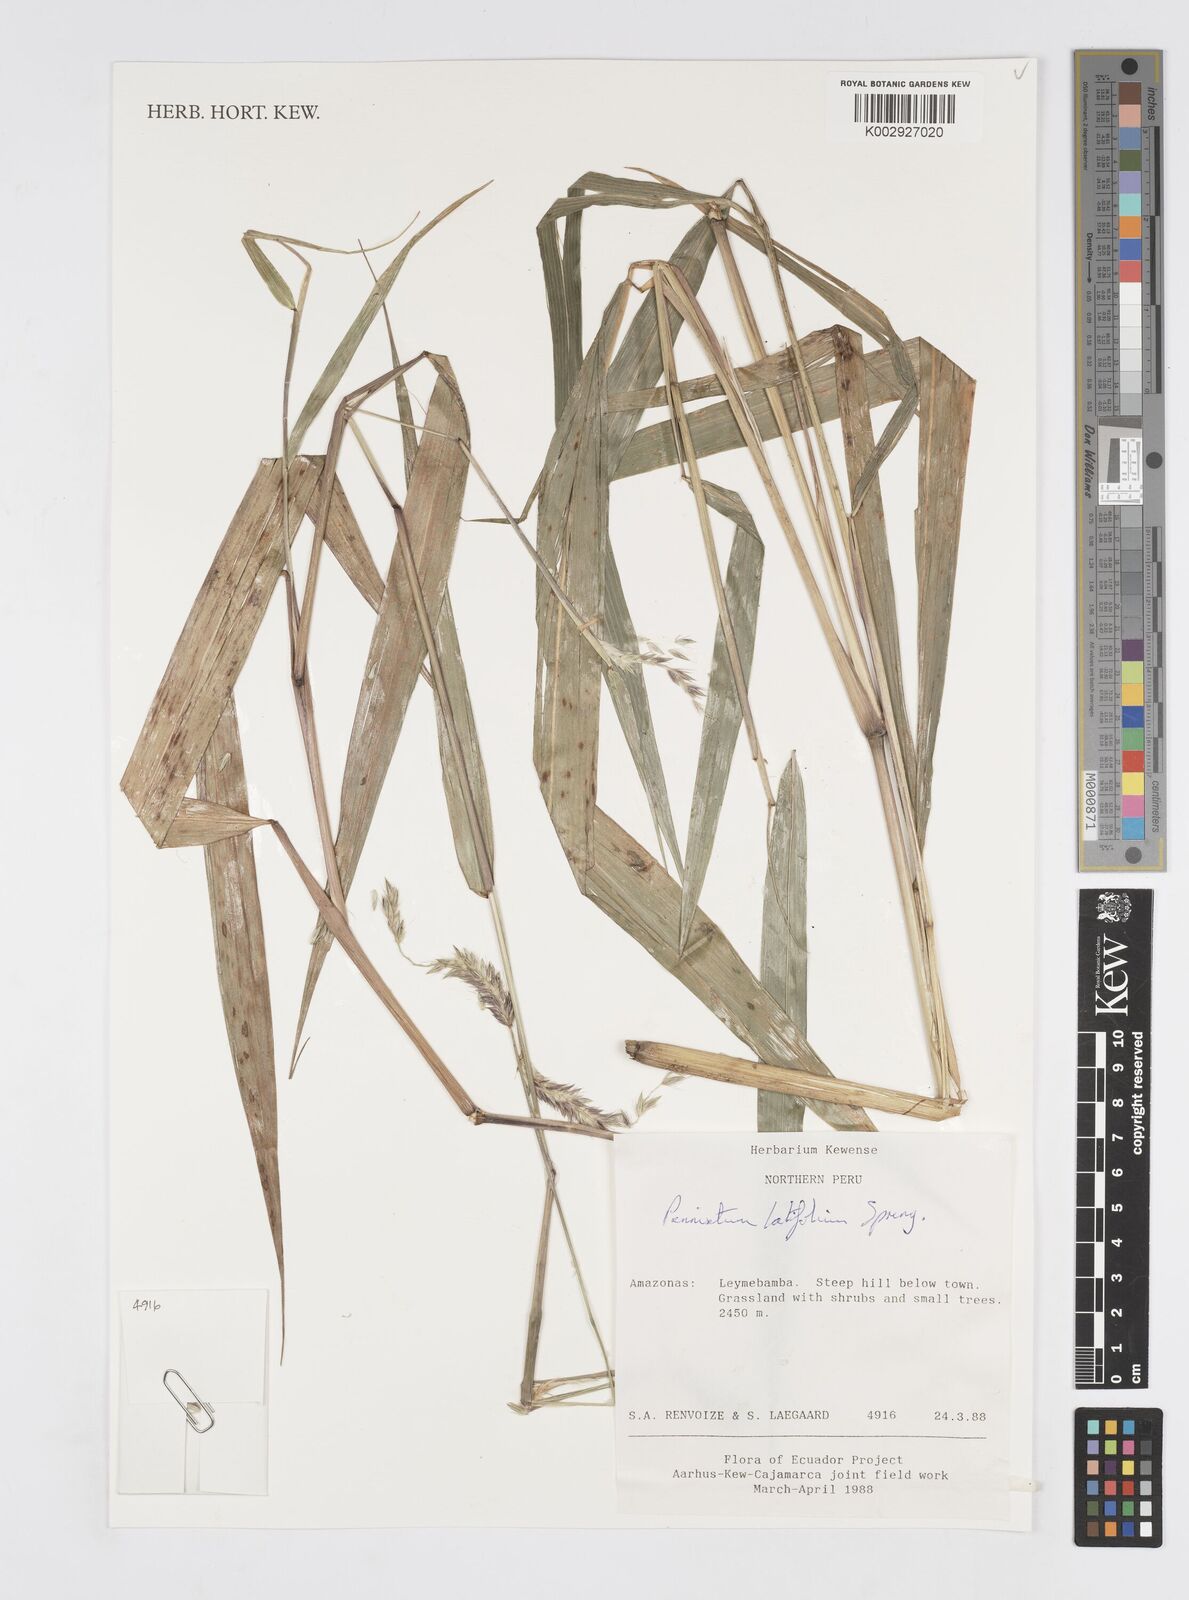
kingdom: Plantae
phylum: Tracheophyta
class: Liliopsida
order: Poales
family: Poaceae
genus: Cenchrus
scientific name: Cenchrus latifolius
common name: Sandbur
